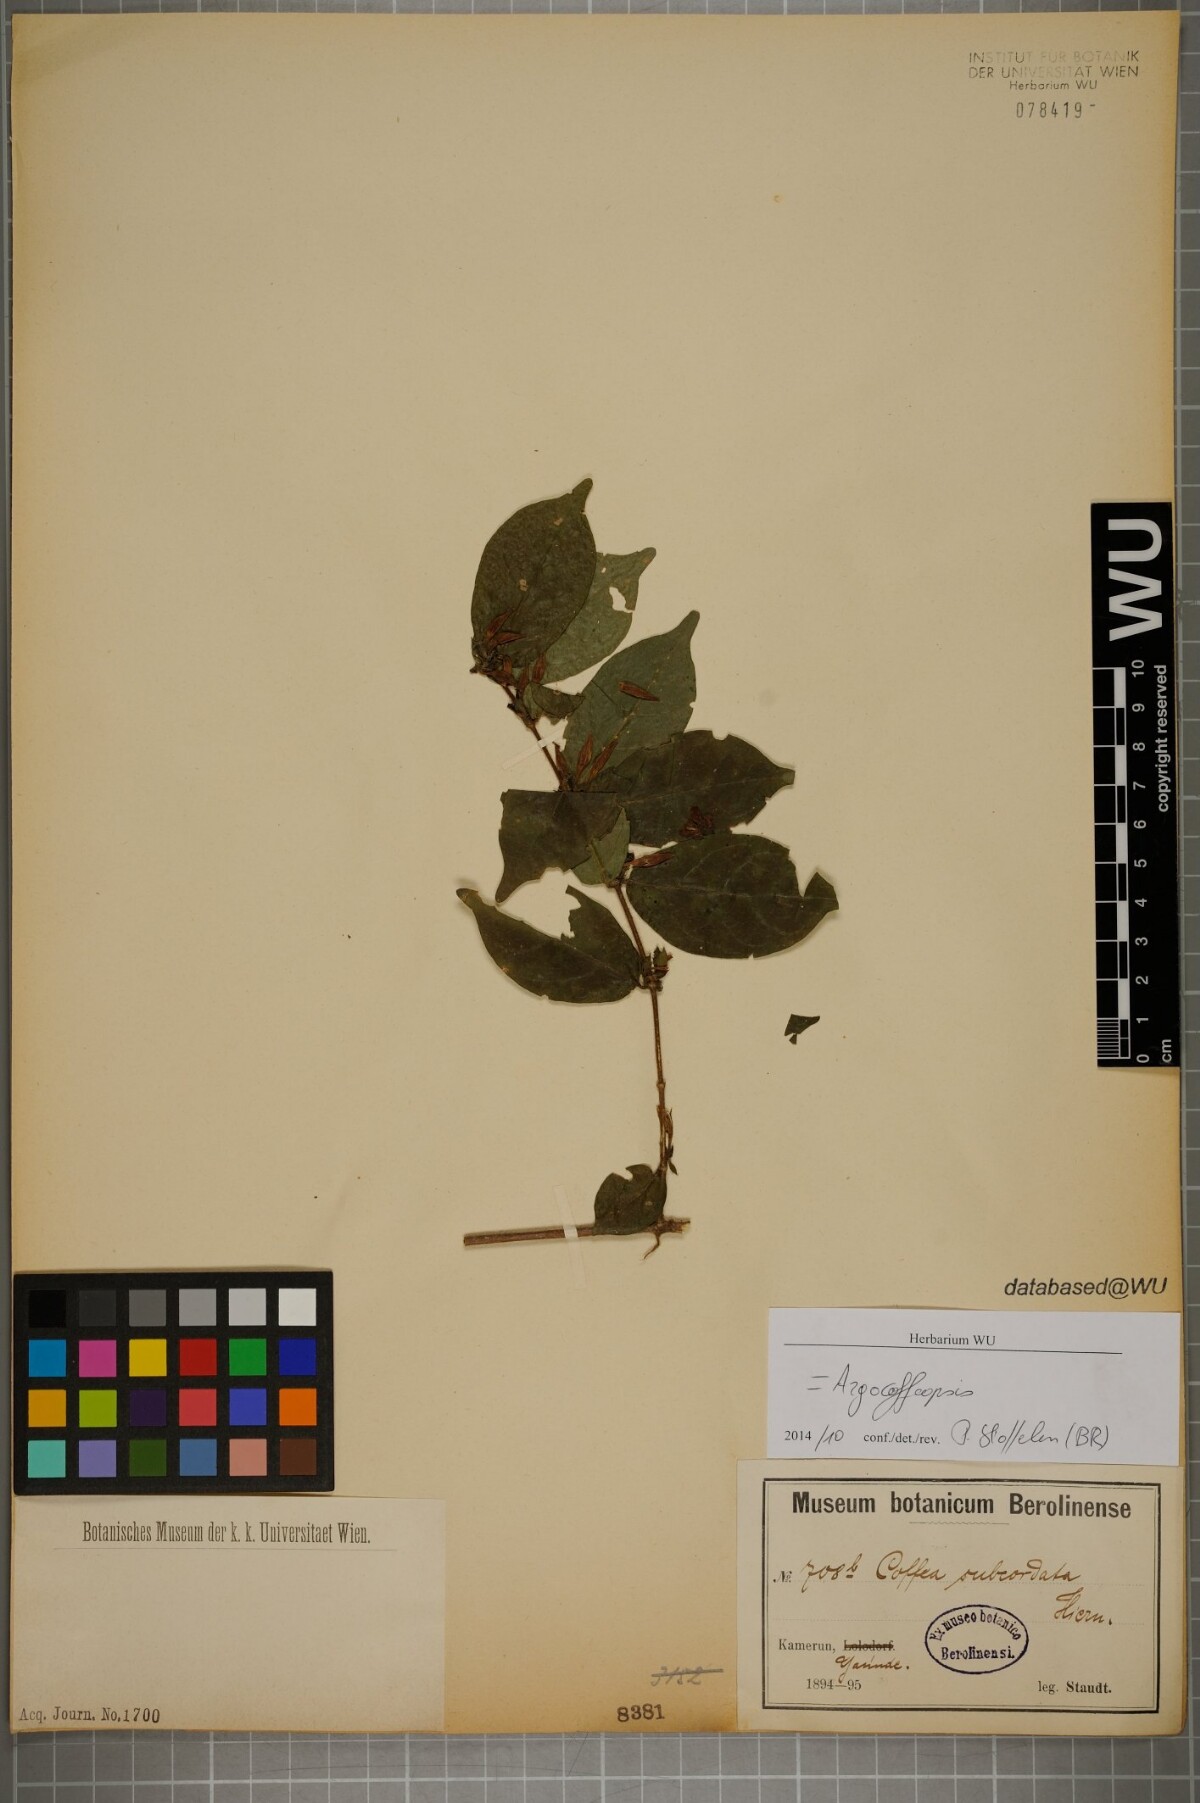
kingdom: Plantae
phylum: Tracheophyta
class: Magnoliopsida
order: Gentianales
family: Rubiaceae
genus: Argocoffeopsis
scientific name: Argocoffeopsis subcordata
